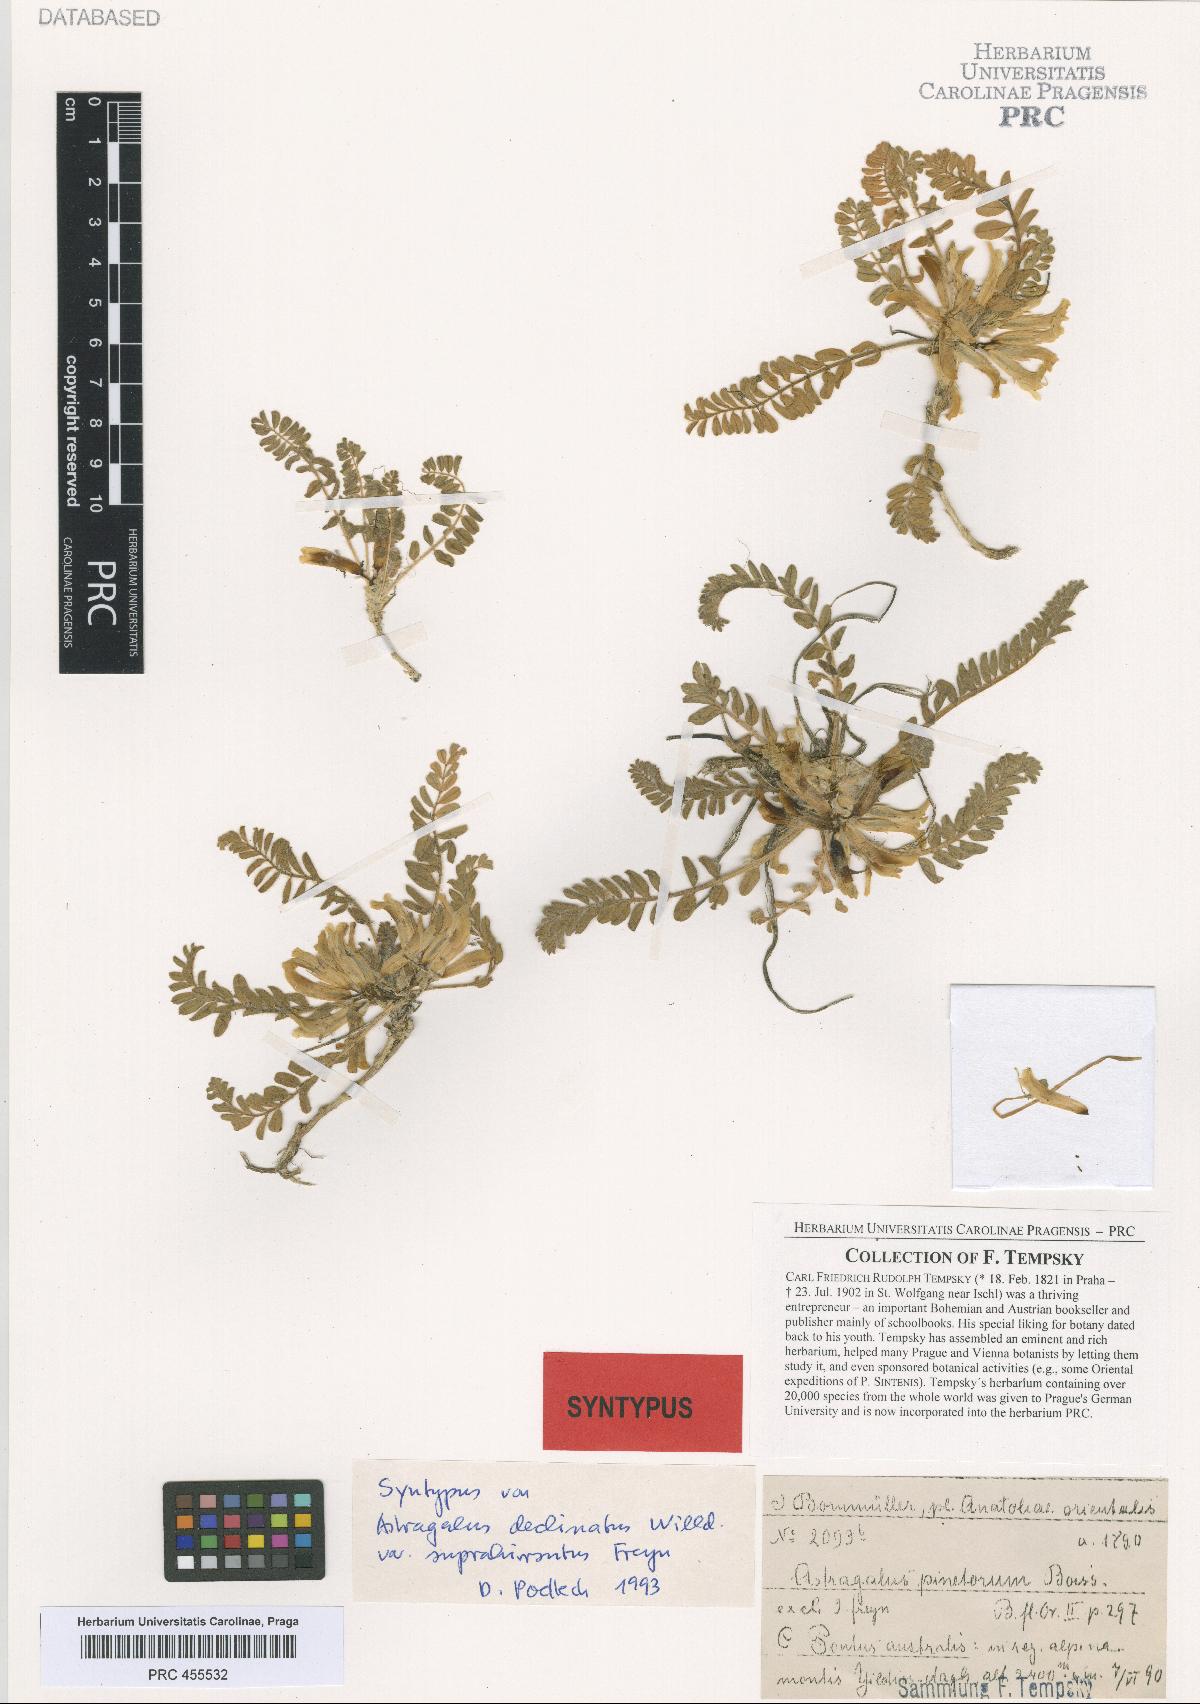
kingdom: Plantae
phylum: Tracheophyta
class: Magnoliopsida
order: Fabales
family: Fabaceae
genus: Astragalus
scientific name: Astragalus pinetorum
